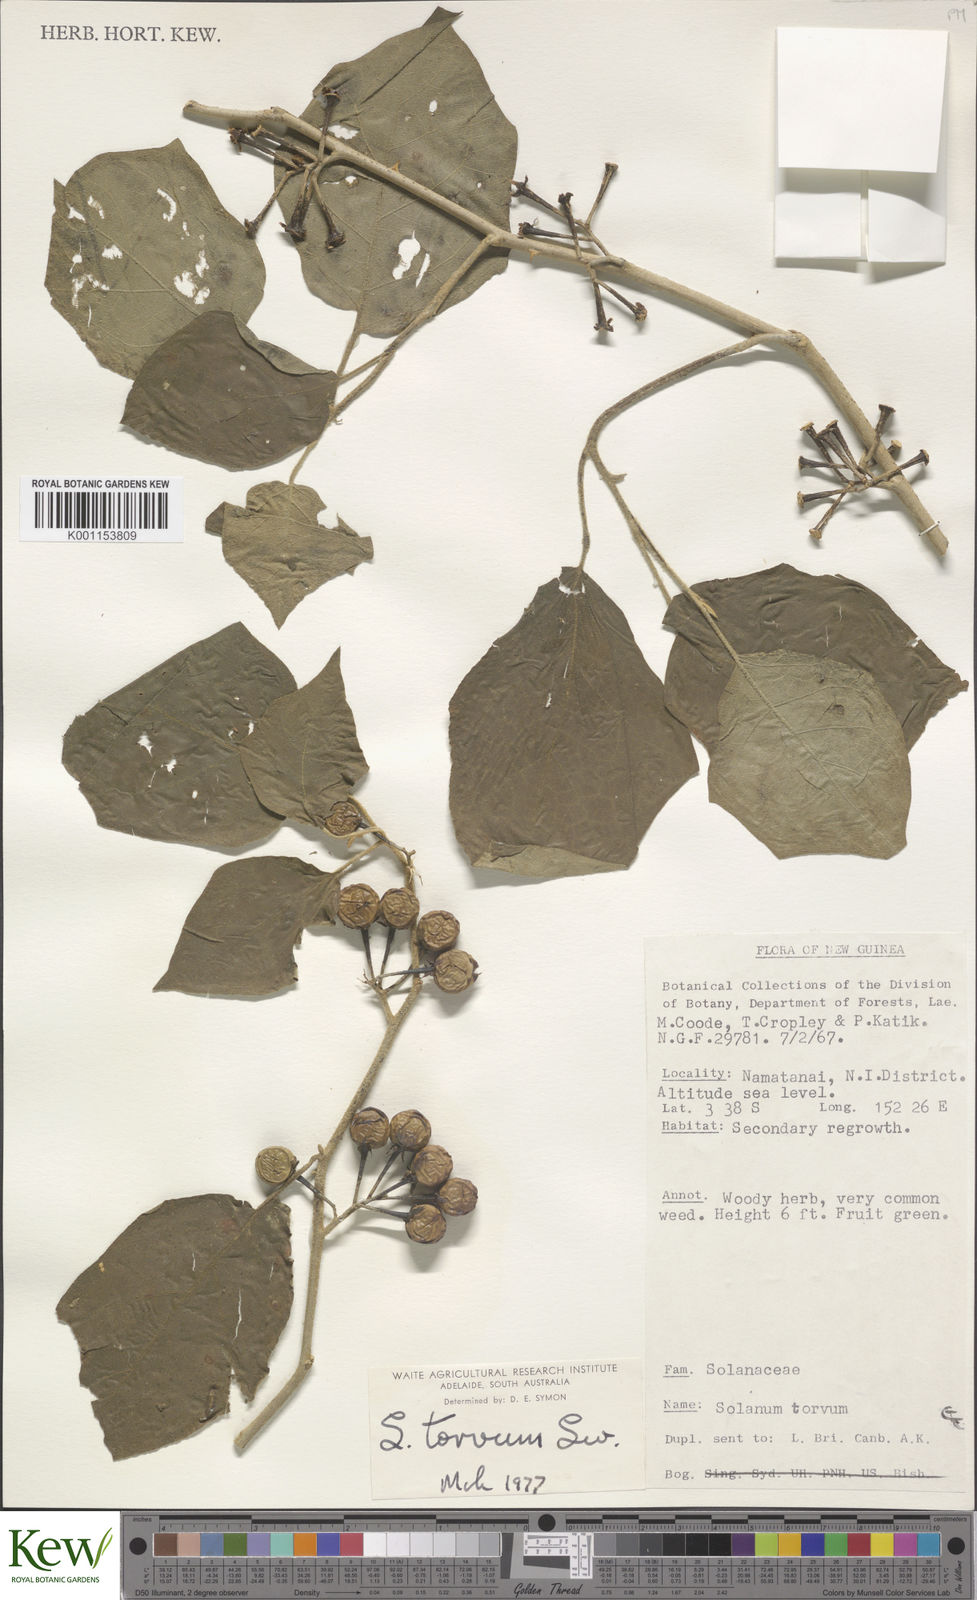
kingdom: Plantae
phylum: Tracheophyta
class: Magnoliopsida
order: Solanales
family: Solanaceae
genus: Solanum
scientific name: Solanum torvum
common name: Turkey berry
